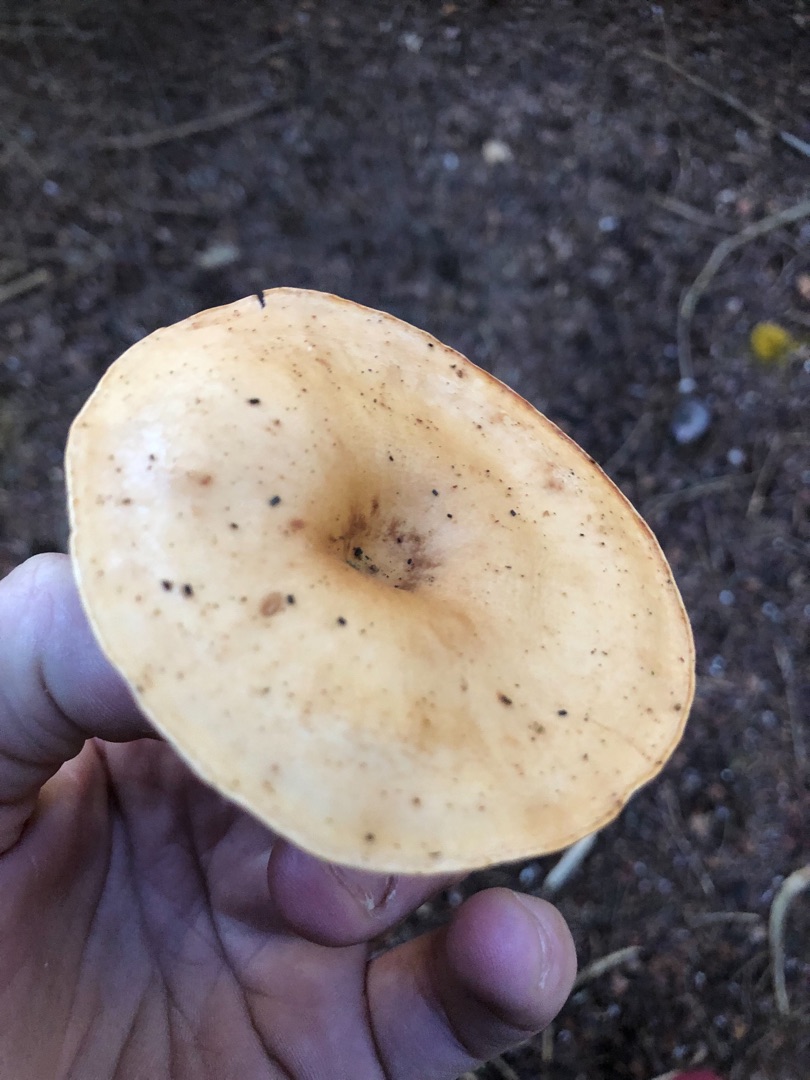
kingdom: Fungi
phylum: Basidiomycota
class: Agaricomycetes
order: Agaricales
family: Tricholomataceae
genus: Paralepista
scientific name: Paralepista flaccida
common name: Brunstænket hekseringshat
